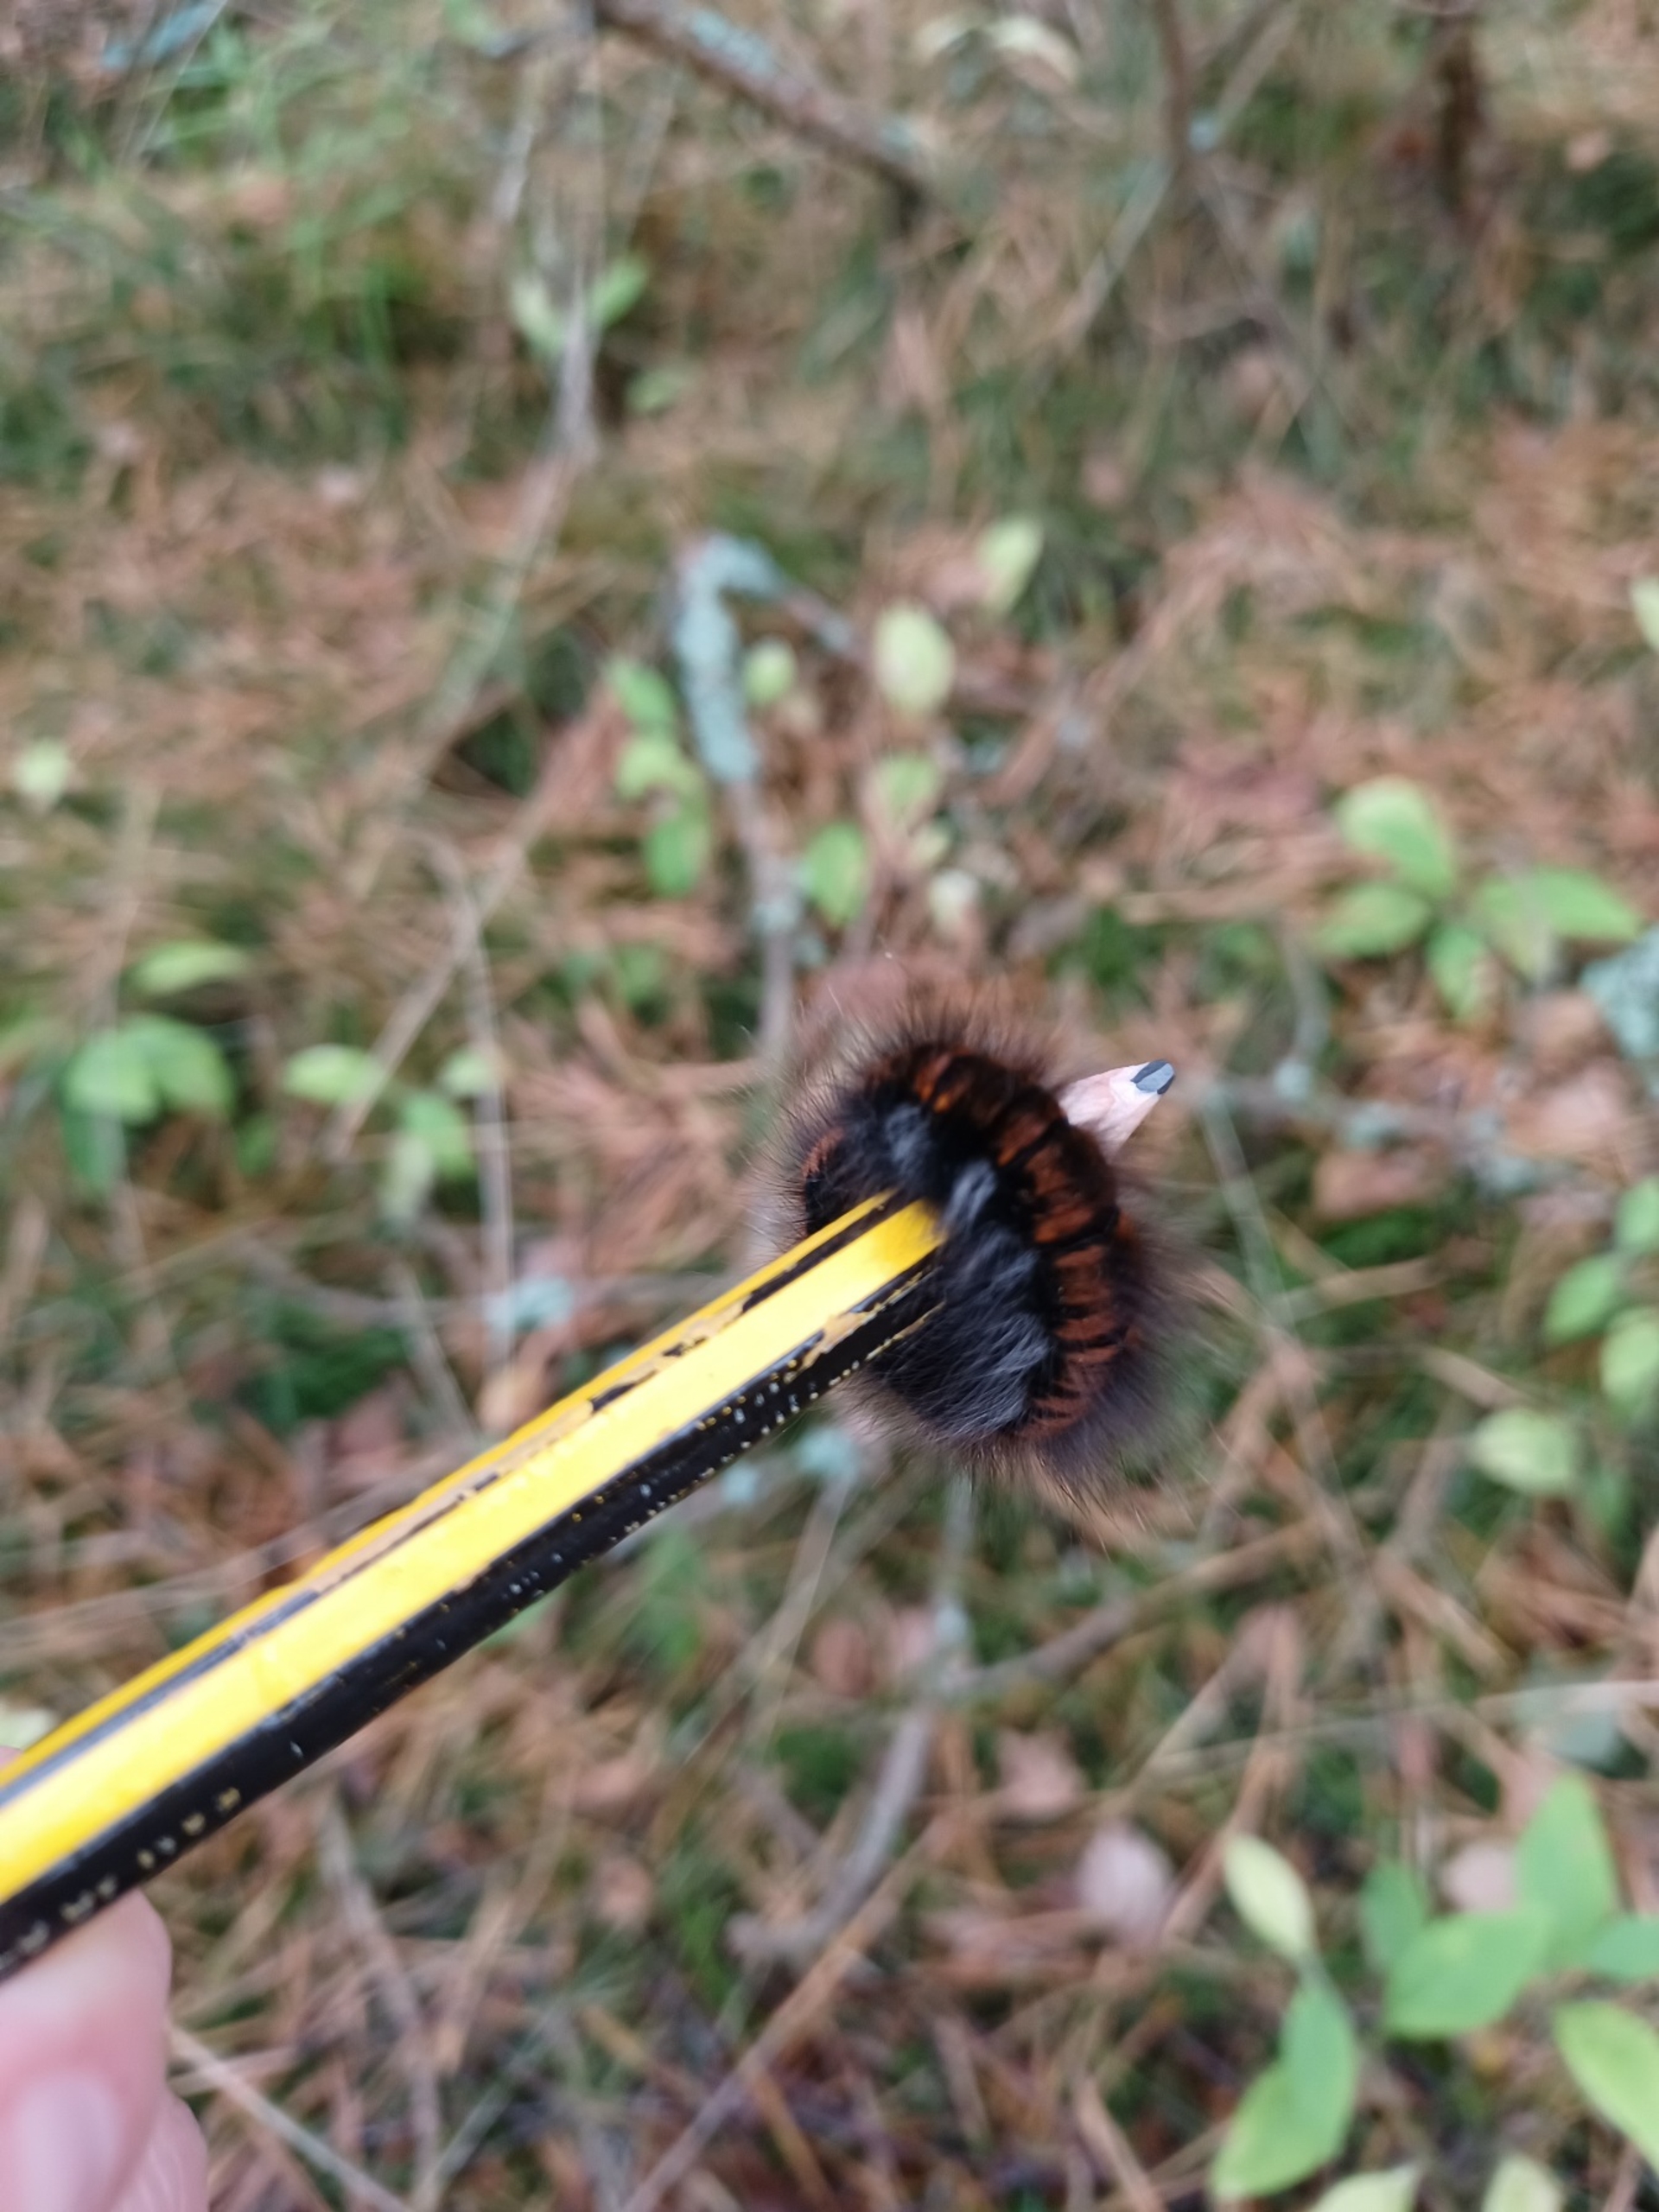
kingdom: Animalia
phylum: Arthropoda
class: Insecta
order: Lepidoptera
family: Lasiocampidae
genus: Macrothylacia
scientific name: Macrothylacia rubi
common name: Brombærspinder
